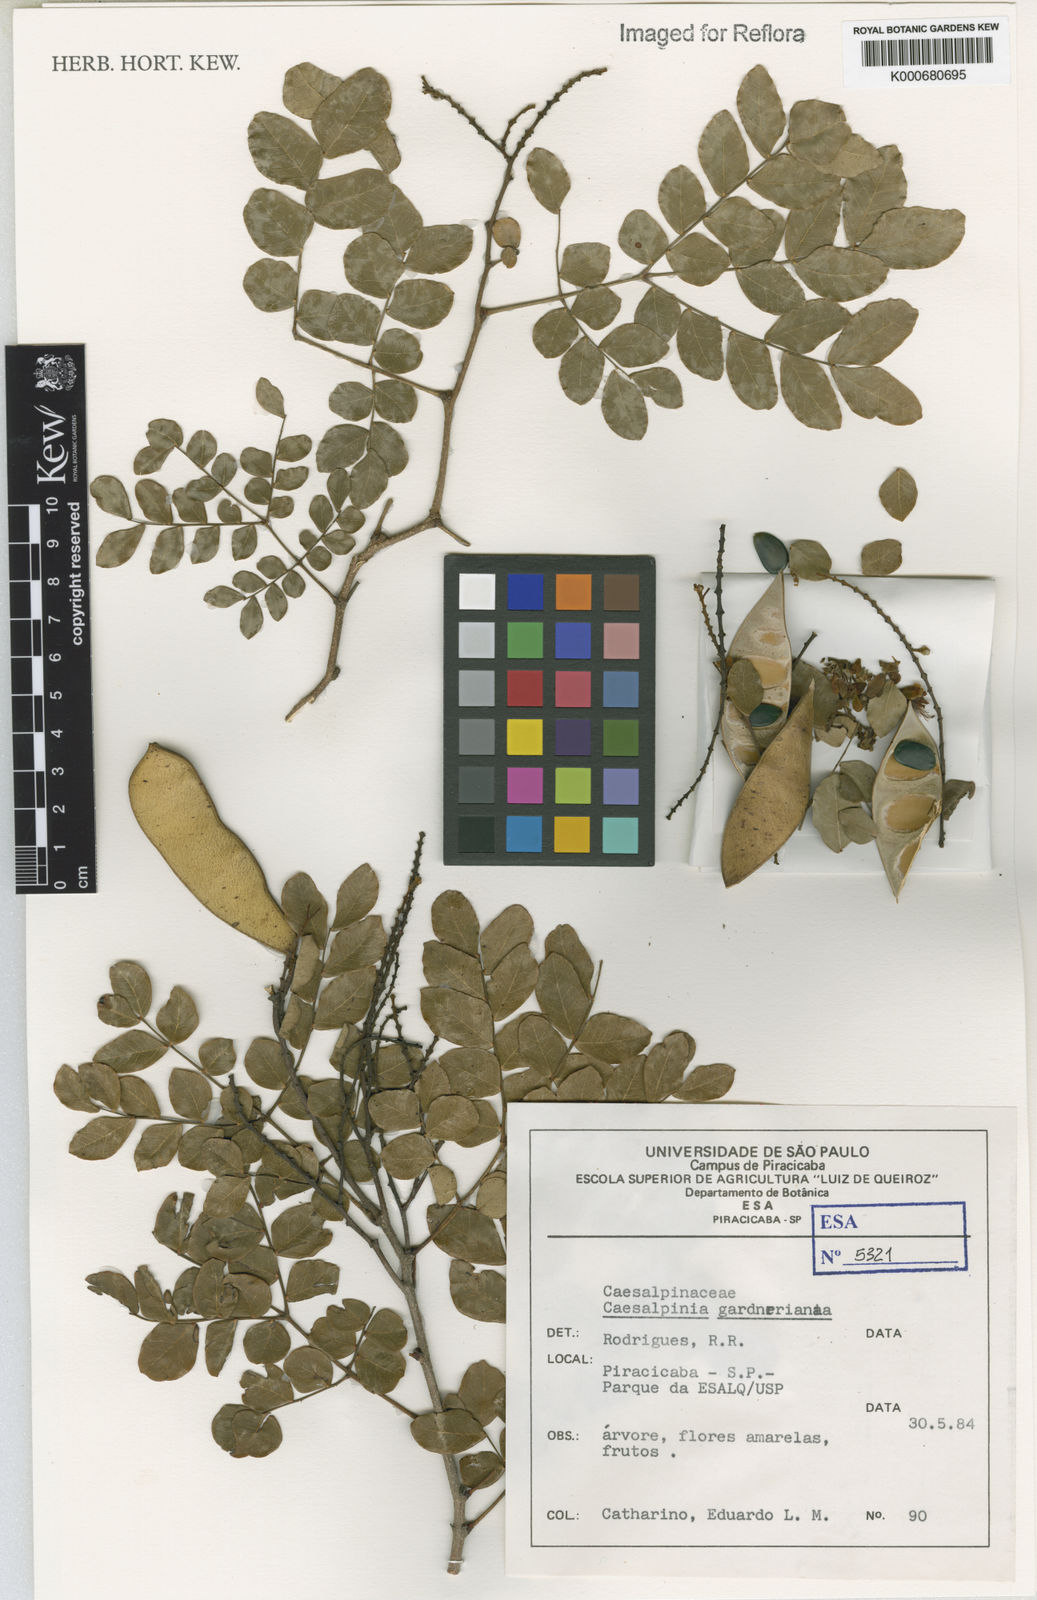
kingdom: Plantae
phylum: Tracheophyta
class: Magnoliopsida
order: Fabales
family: Fabaceae
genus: Cenostigma
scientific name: Cenostigma nordestinum
